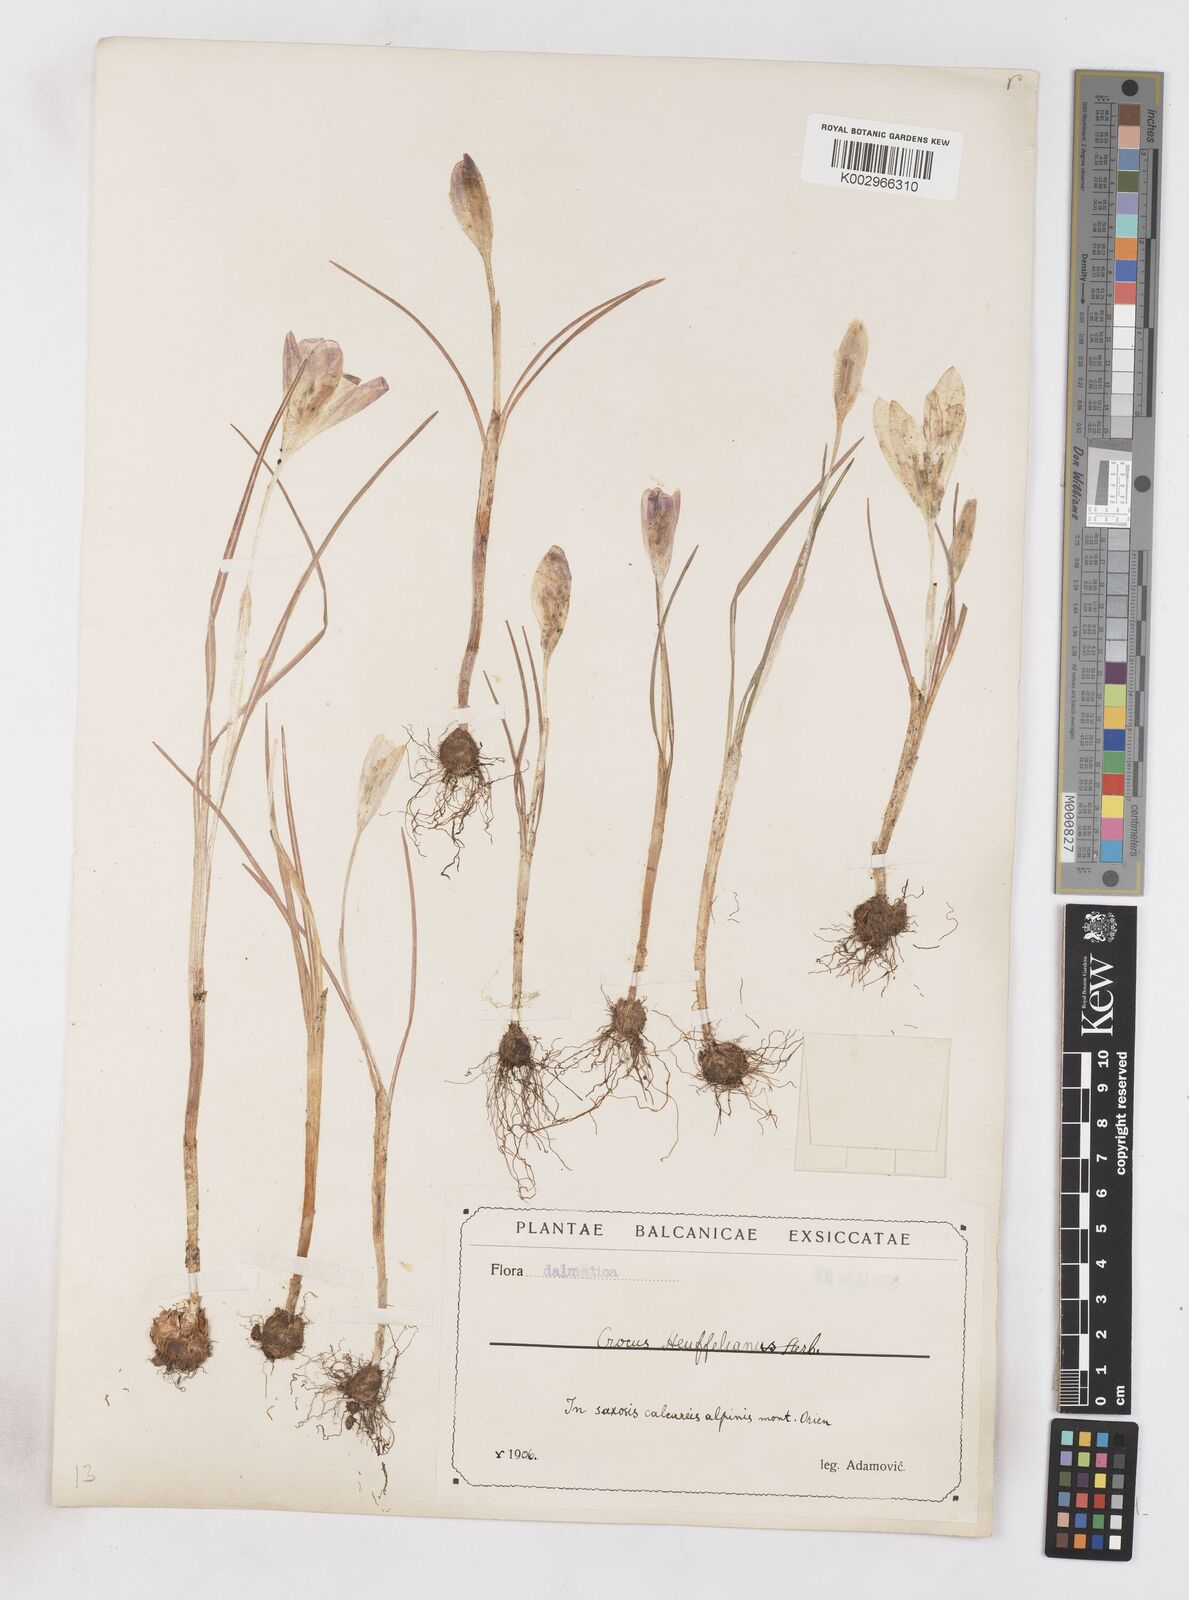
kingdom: Plantae
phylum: Tracheophyta
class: Liliopsida
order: Asparagales
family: Iridaceae
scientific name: Iridaceae
